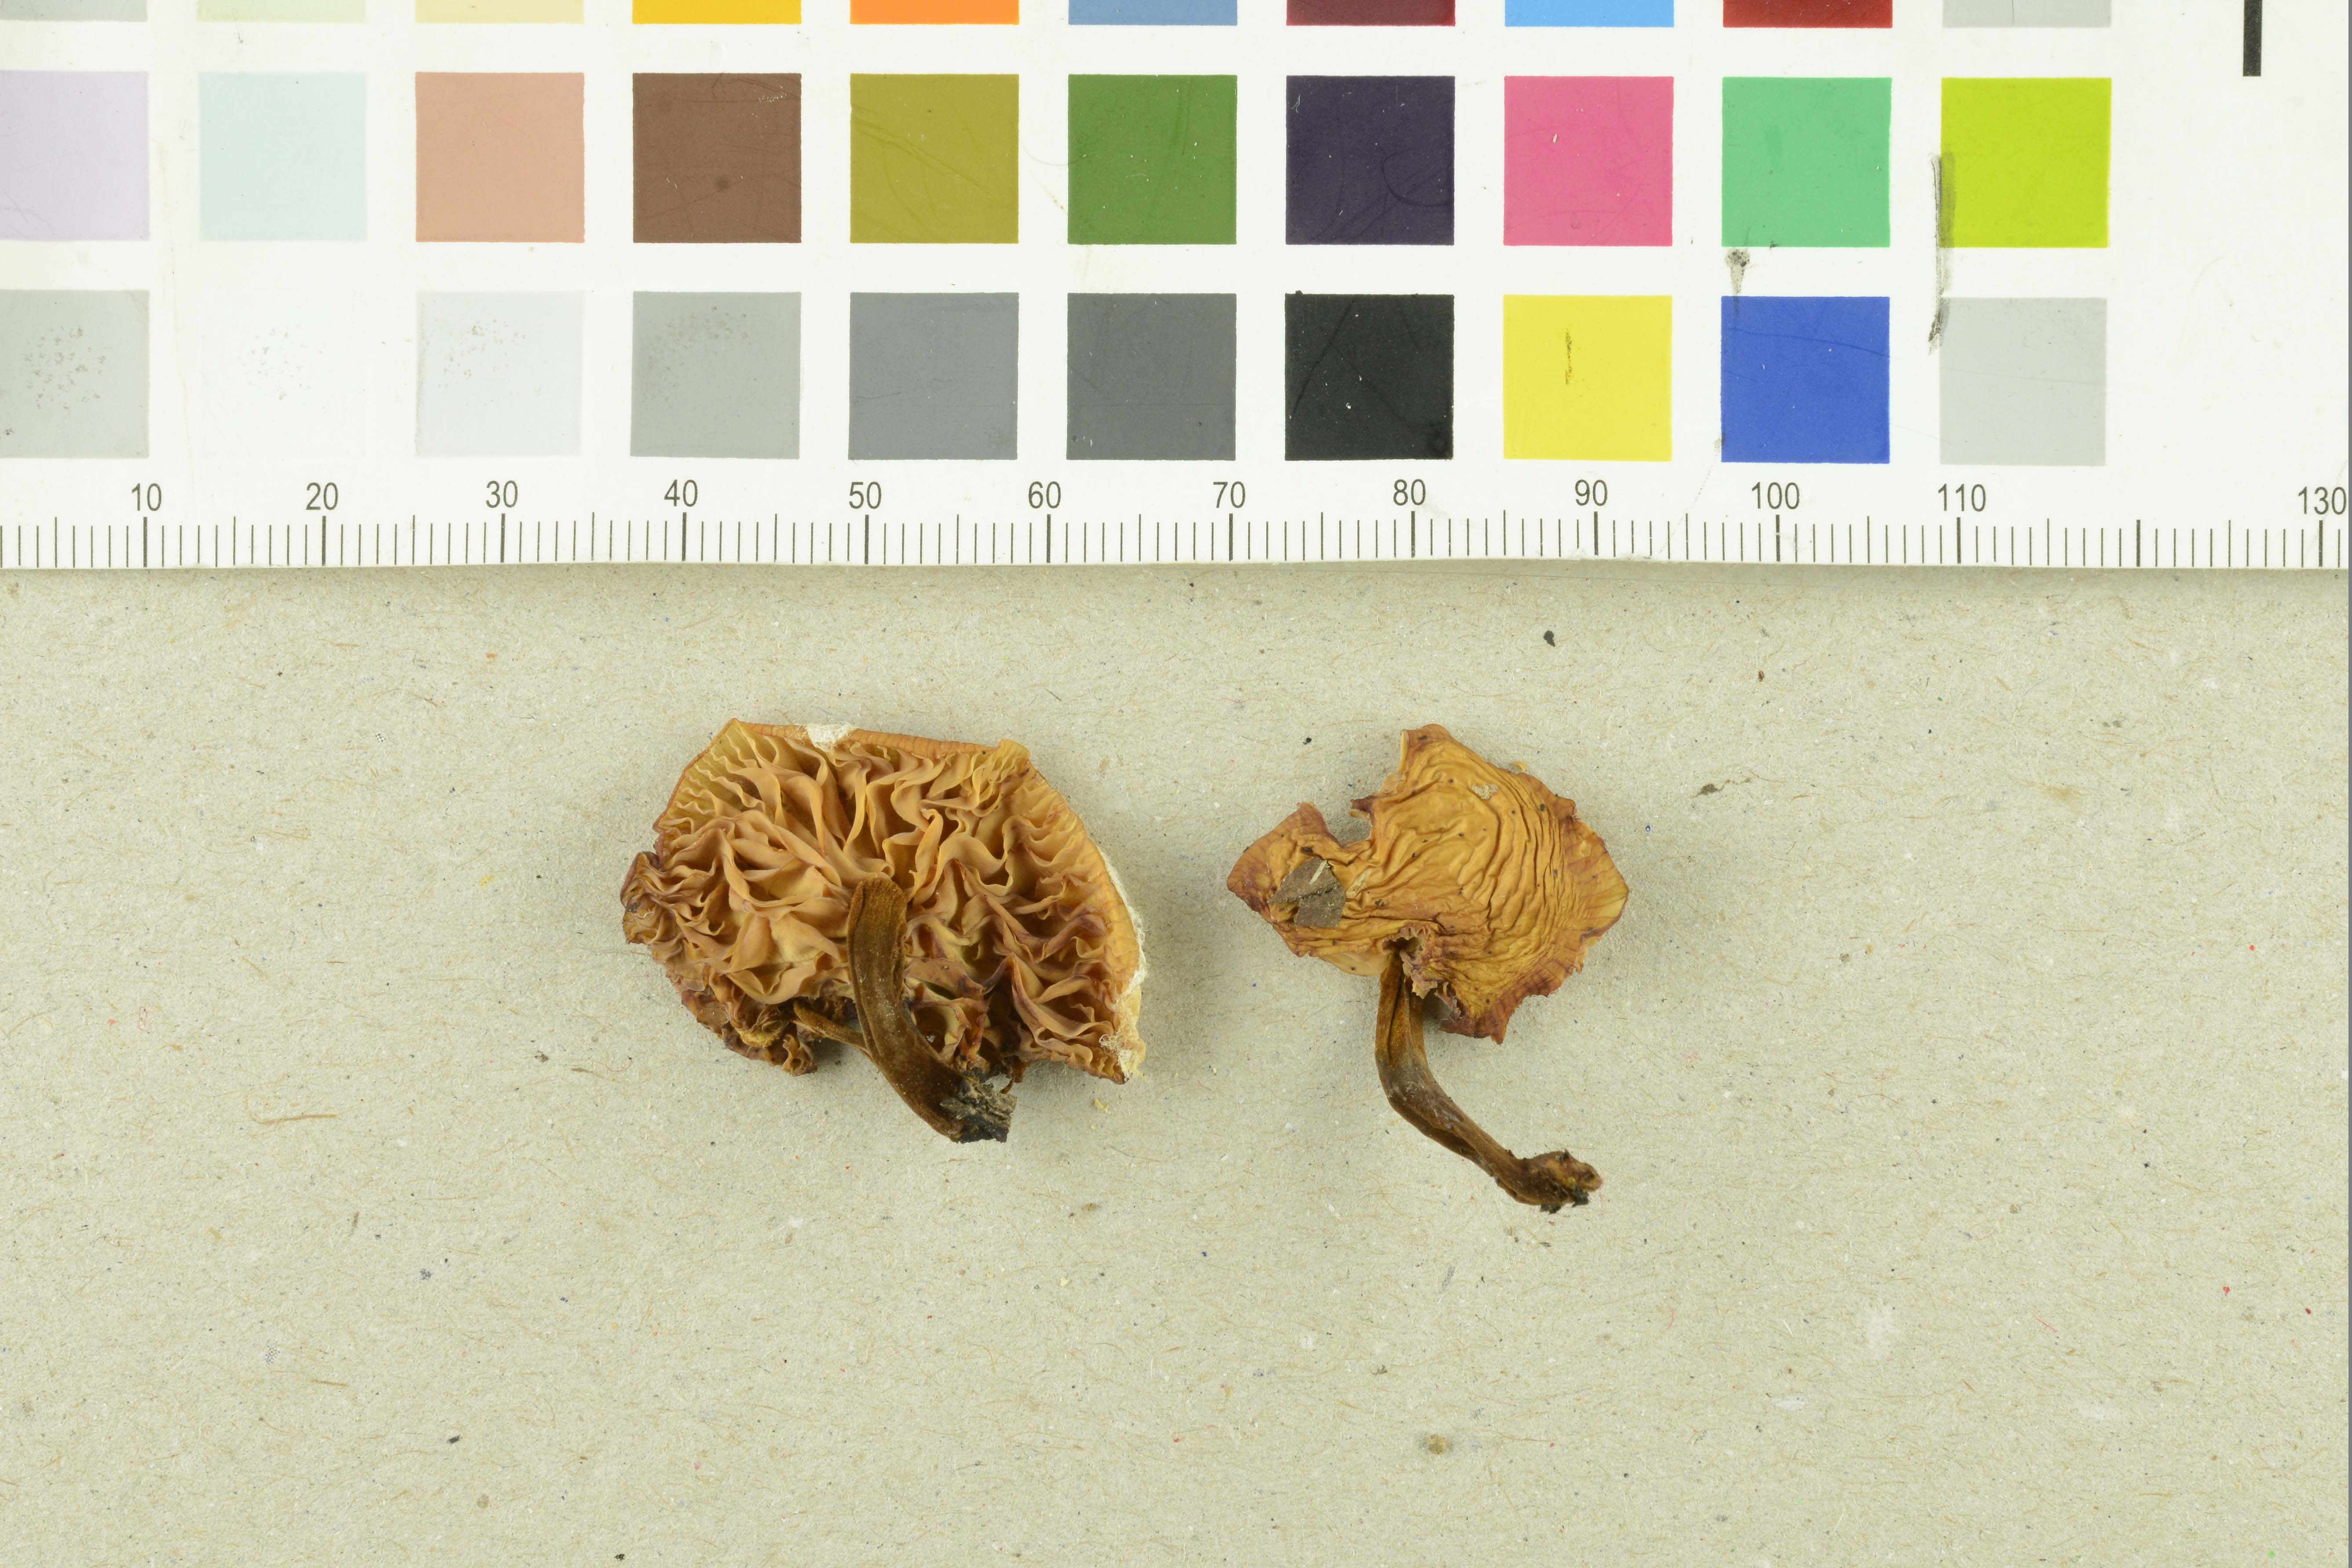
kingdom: Fungi
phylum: Basidiomycota
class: Agaricomycetes
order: Agaricales
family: Physalacriaceae
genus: Flammulina
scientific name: Flammulina elastica
